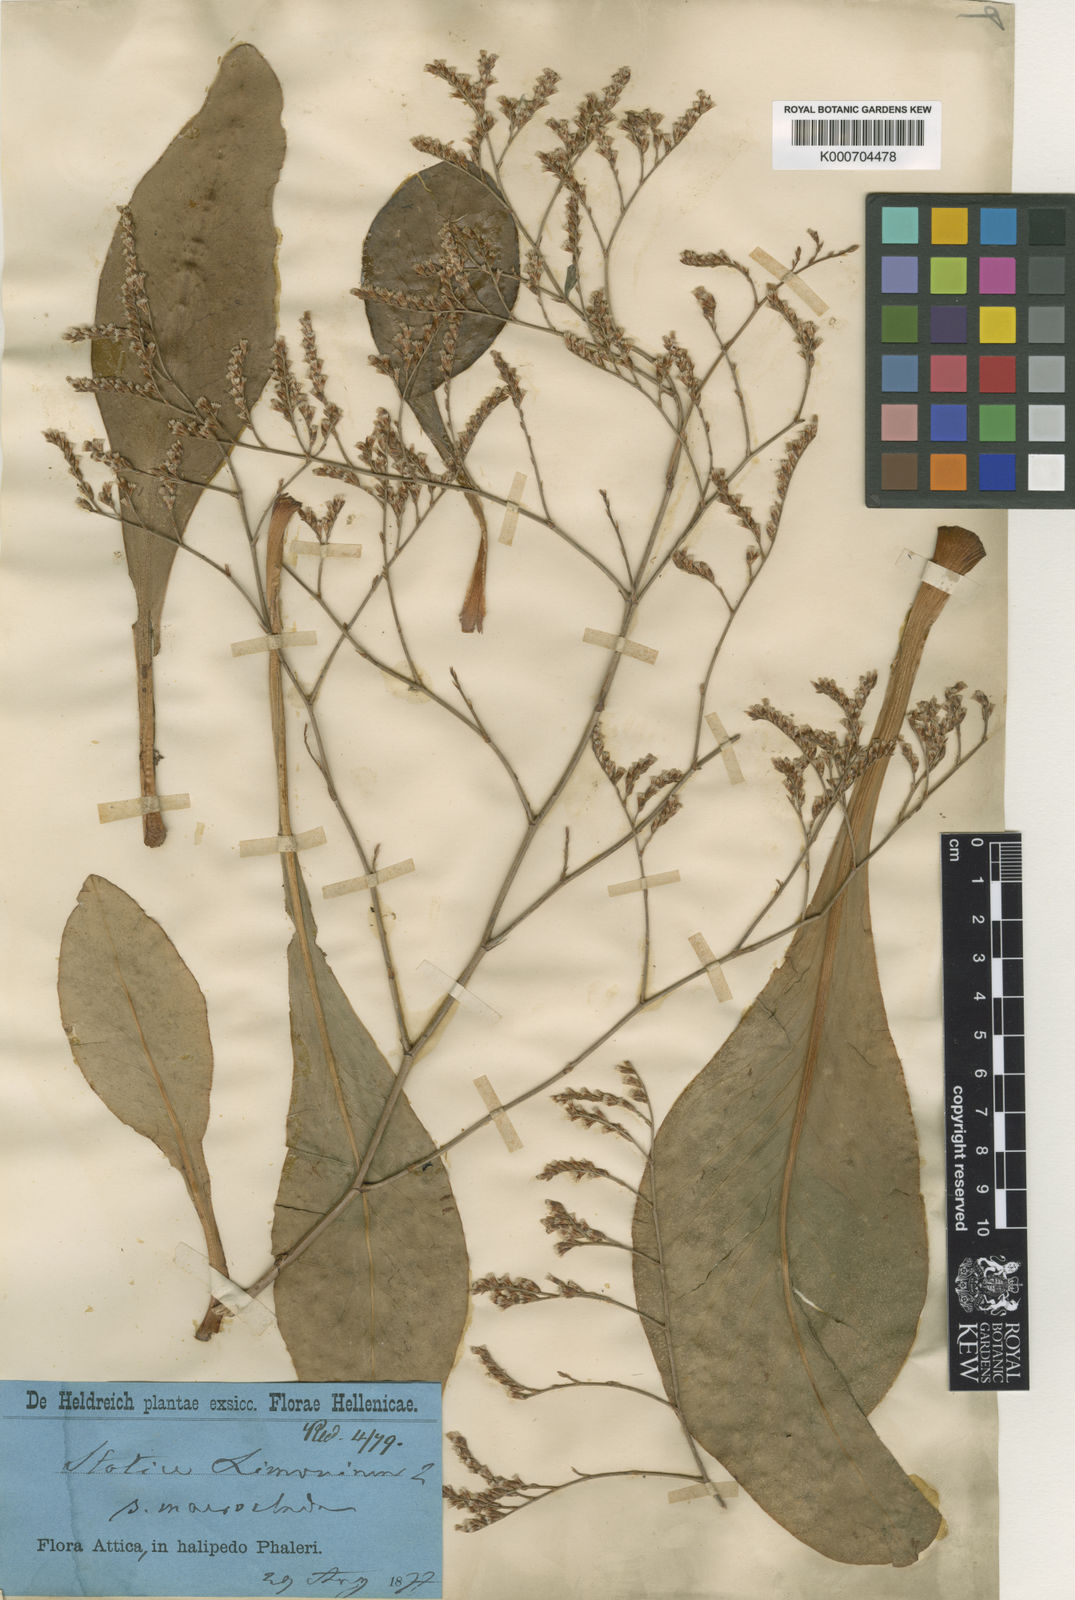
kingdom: Plantae
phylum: Tracheophyta
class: Magnoliopsida
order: Caryophyllales
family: Plumbaginaceae
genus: Limonium
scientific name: Limonium
